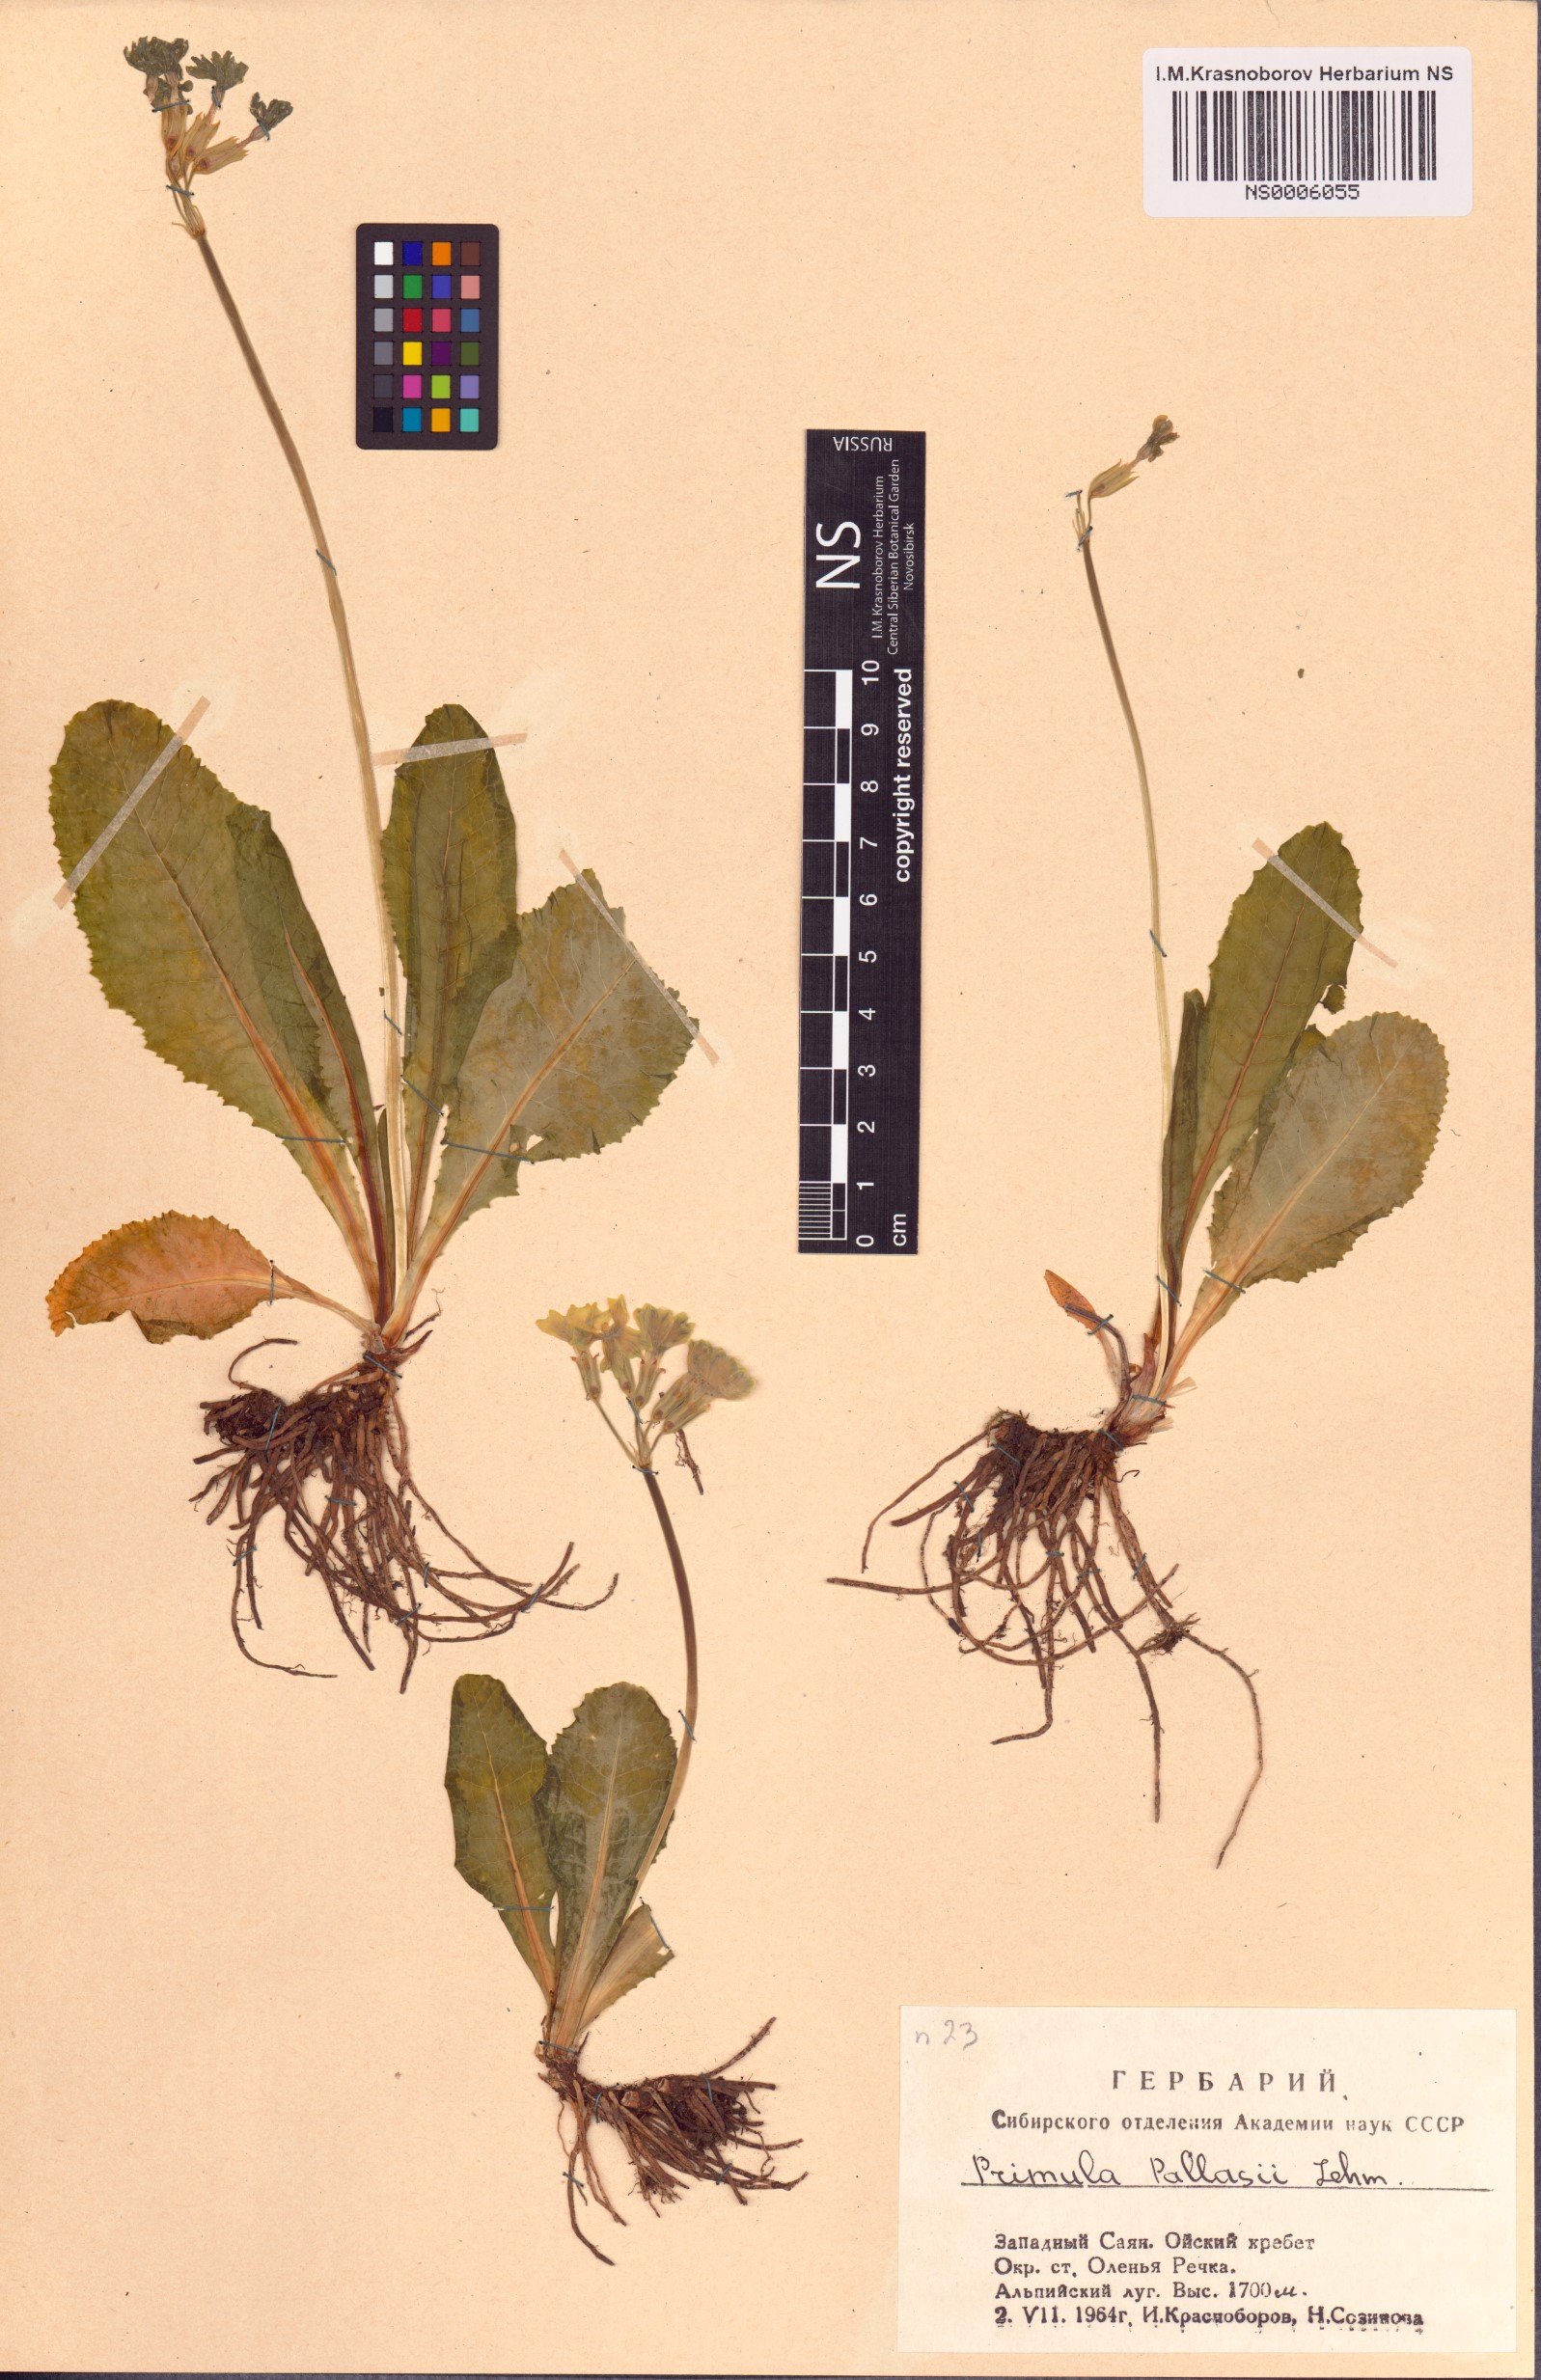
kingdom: Plantae
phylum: Tracheophyta
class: Magnoliopsida
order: Ericales
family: Primulaceae
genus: Primula
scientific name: Primula elatior
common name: Oxlip
